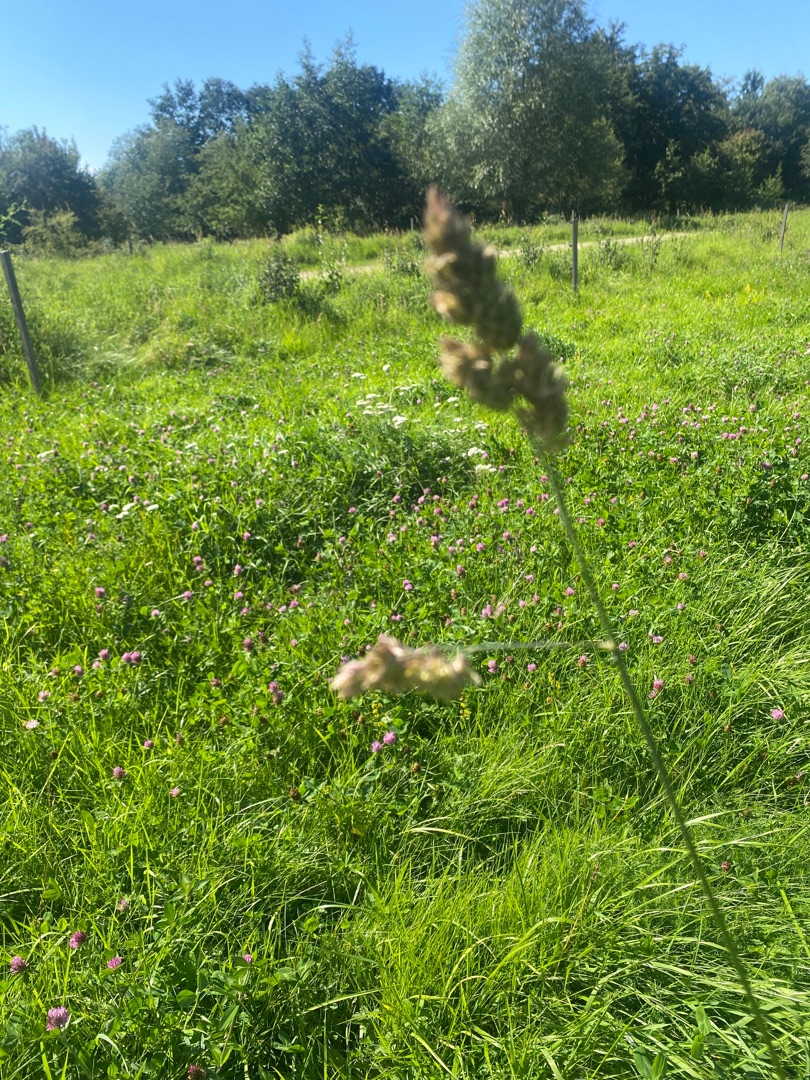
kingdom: Plantae
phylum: Tracheophyta
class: Liliopsida
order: Poales
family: Poaceae
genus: Dactylis
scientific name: Dactylis glomerata
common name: Almindelig hundegræs
